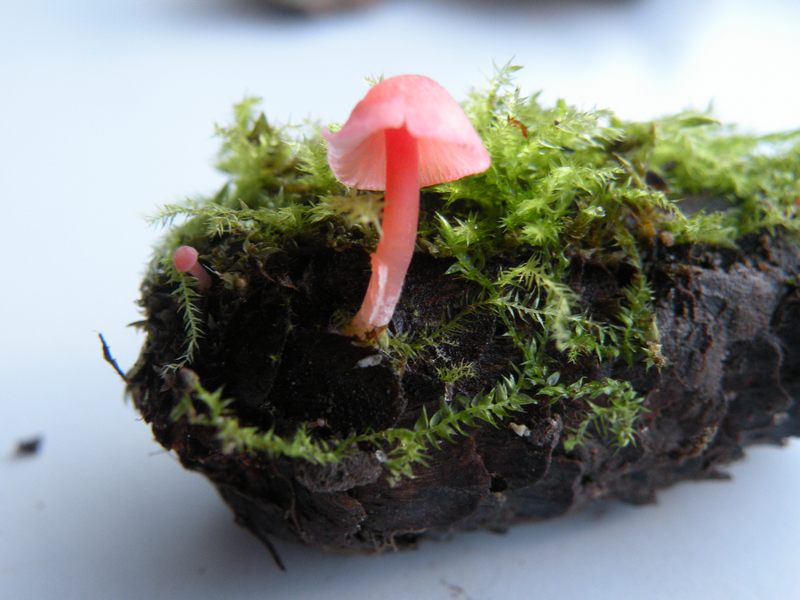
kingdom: Fungi
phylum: Basidiomycota
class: Agaricomycetes
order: Agaricales
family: Mycenaceae
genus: Mycena
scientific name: Mycena coccinea
